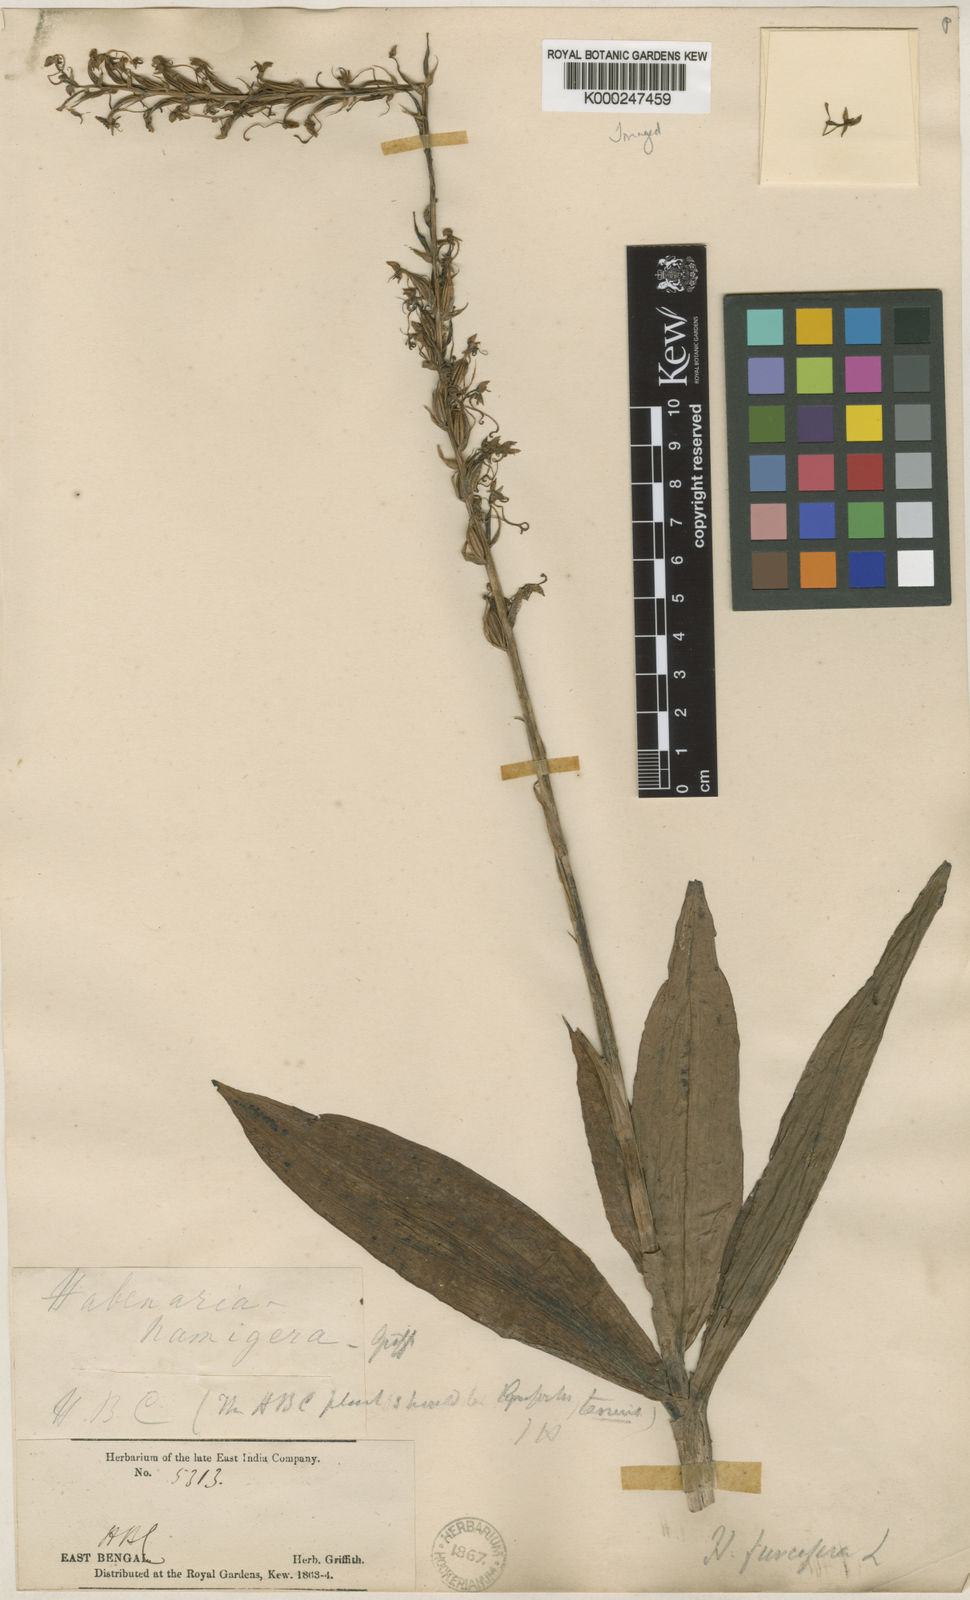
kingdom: Plantae
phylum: Tracheophyta
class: Liliopsida
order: Asparagales
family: Orchidaceae
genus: Habenaria
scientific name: Habenaria furcifera
